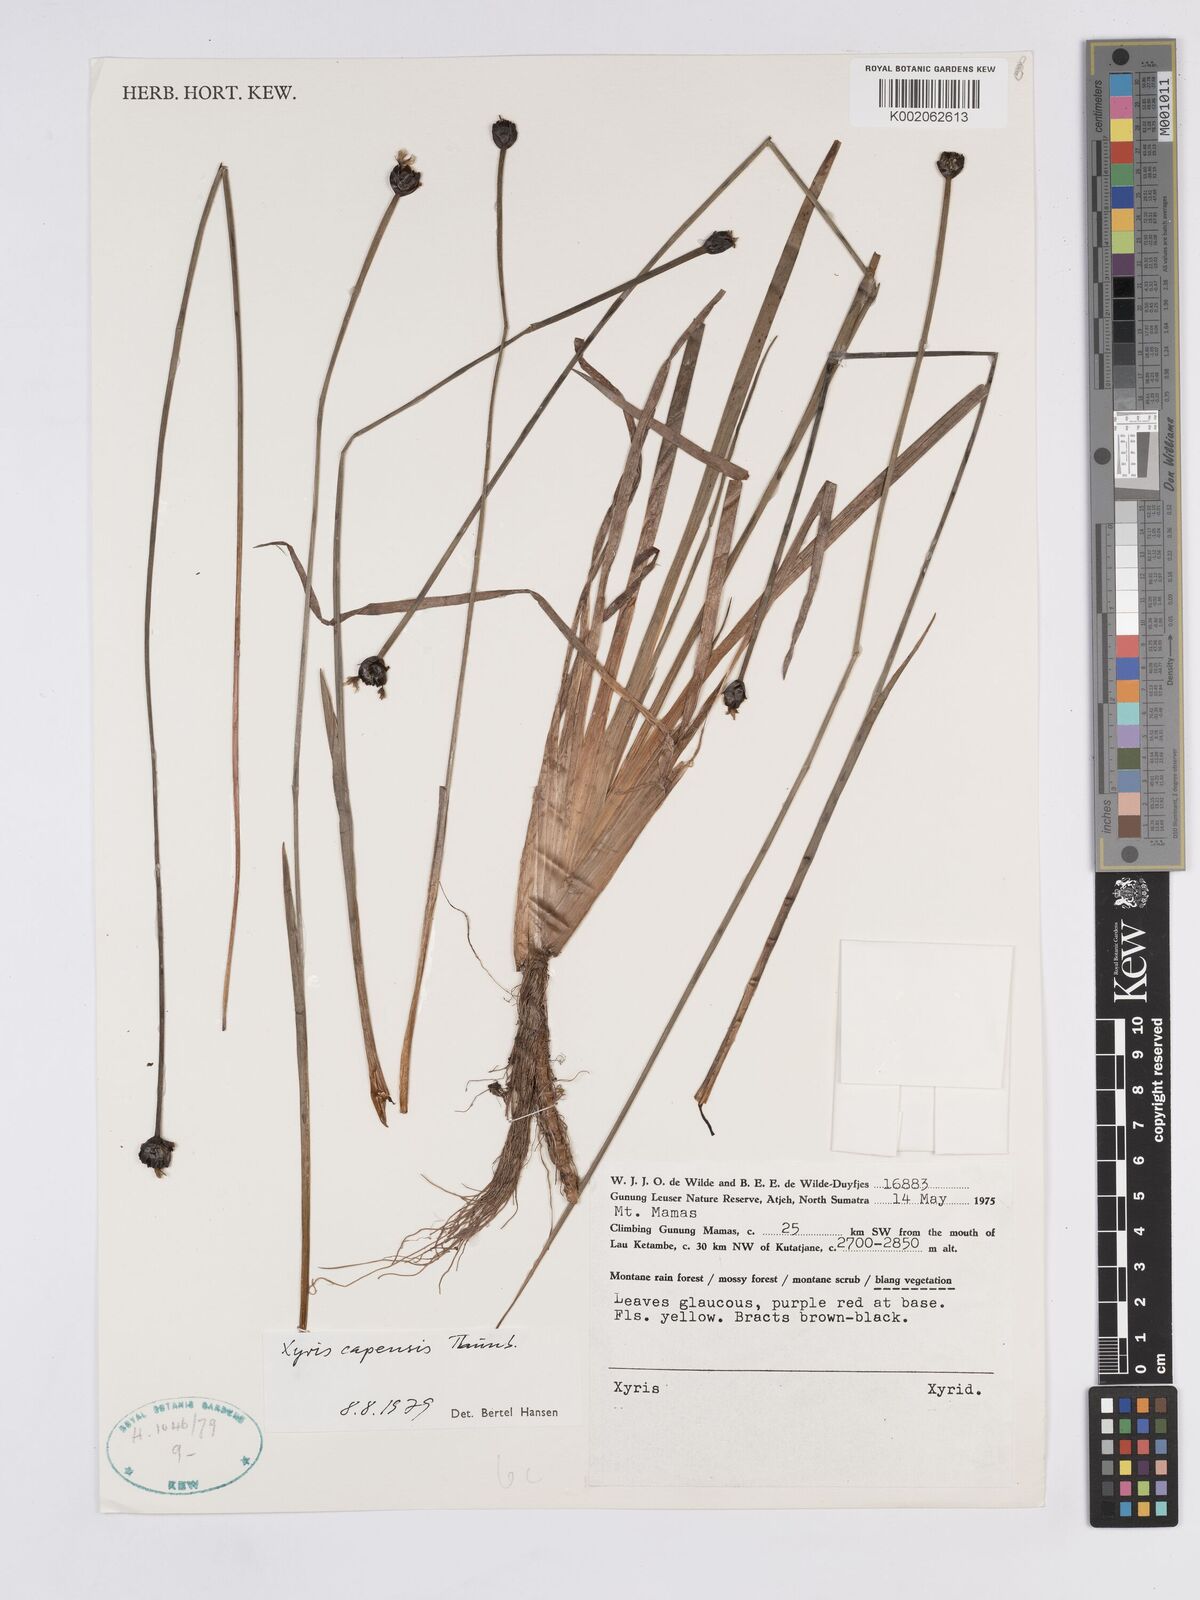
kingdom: Plantae
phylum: Tracheophyta
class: Liliopsida
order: Poales
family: Xyridaceae
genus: Xyris
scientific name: Xyris capensis
